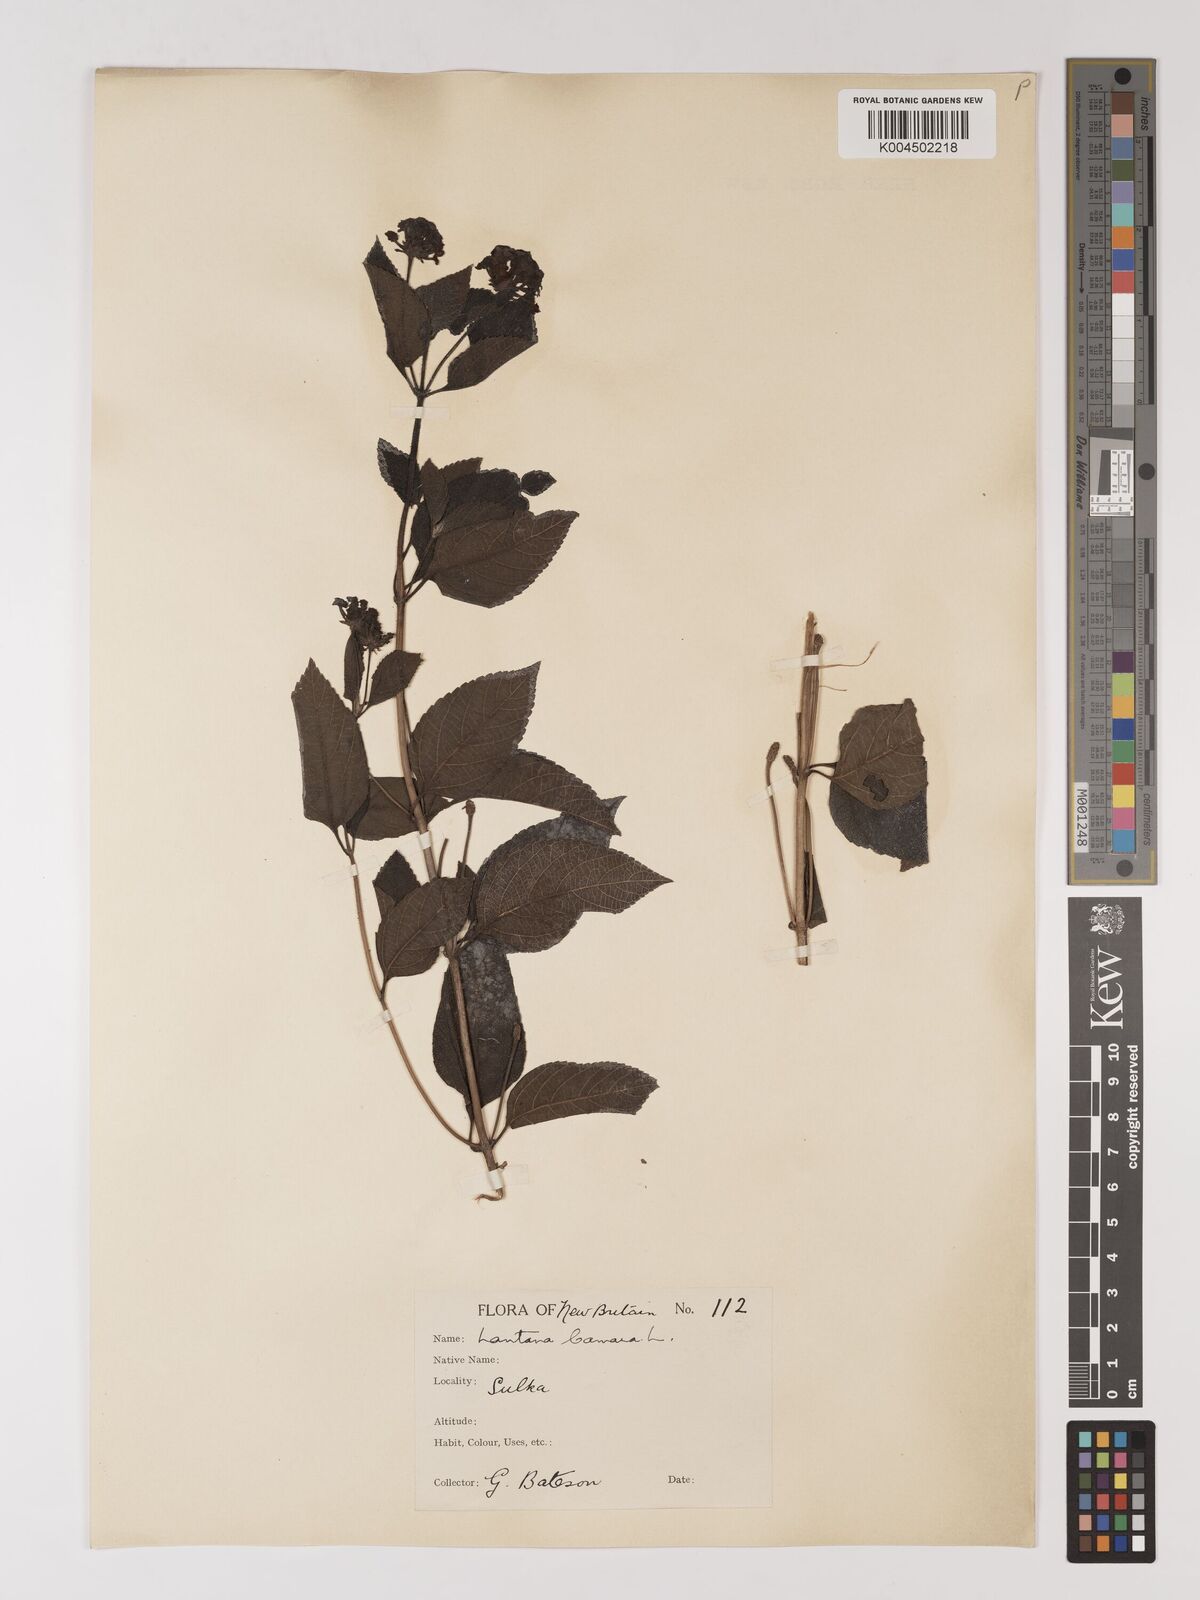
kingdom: Plantae
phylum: Tracheophyta
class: Magnoliopsida
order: Lamiales
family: Verbenaceae
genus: Lantana
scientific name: Lantana camara
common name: Lantana
